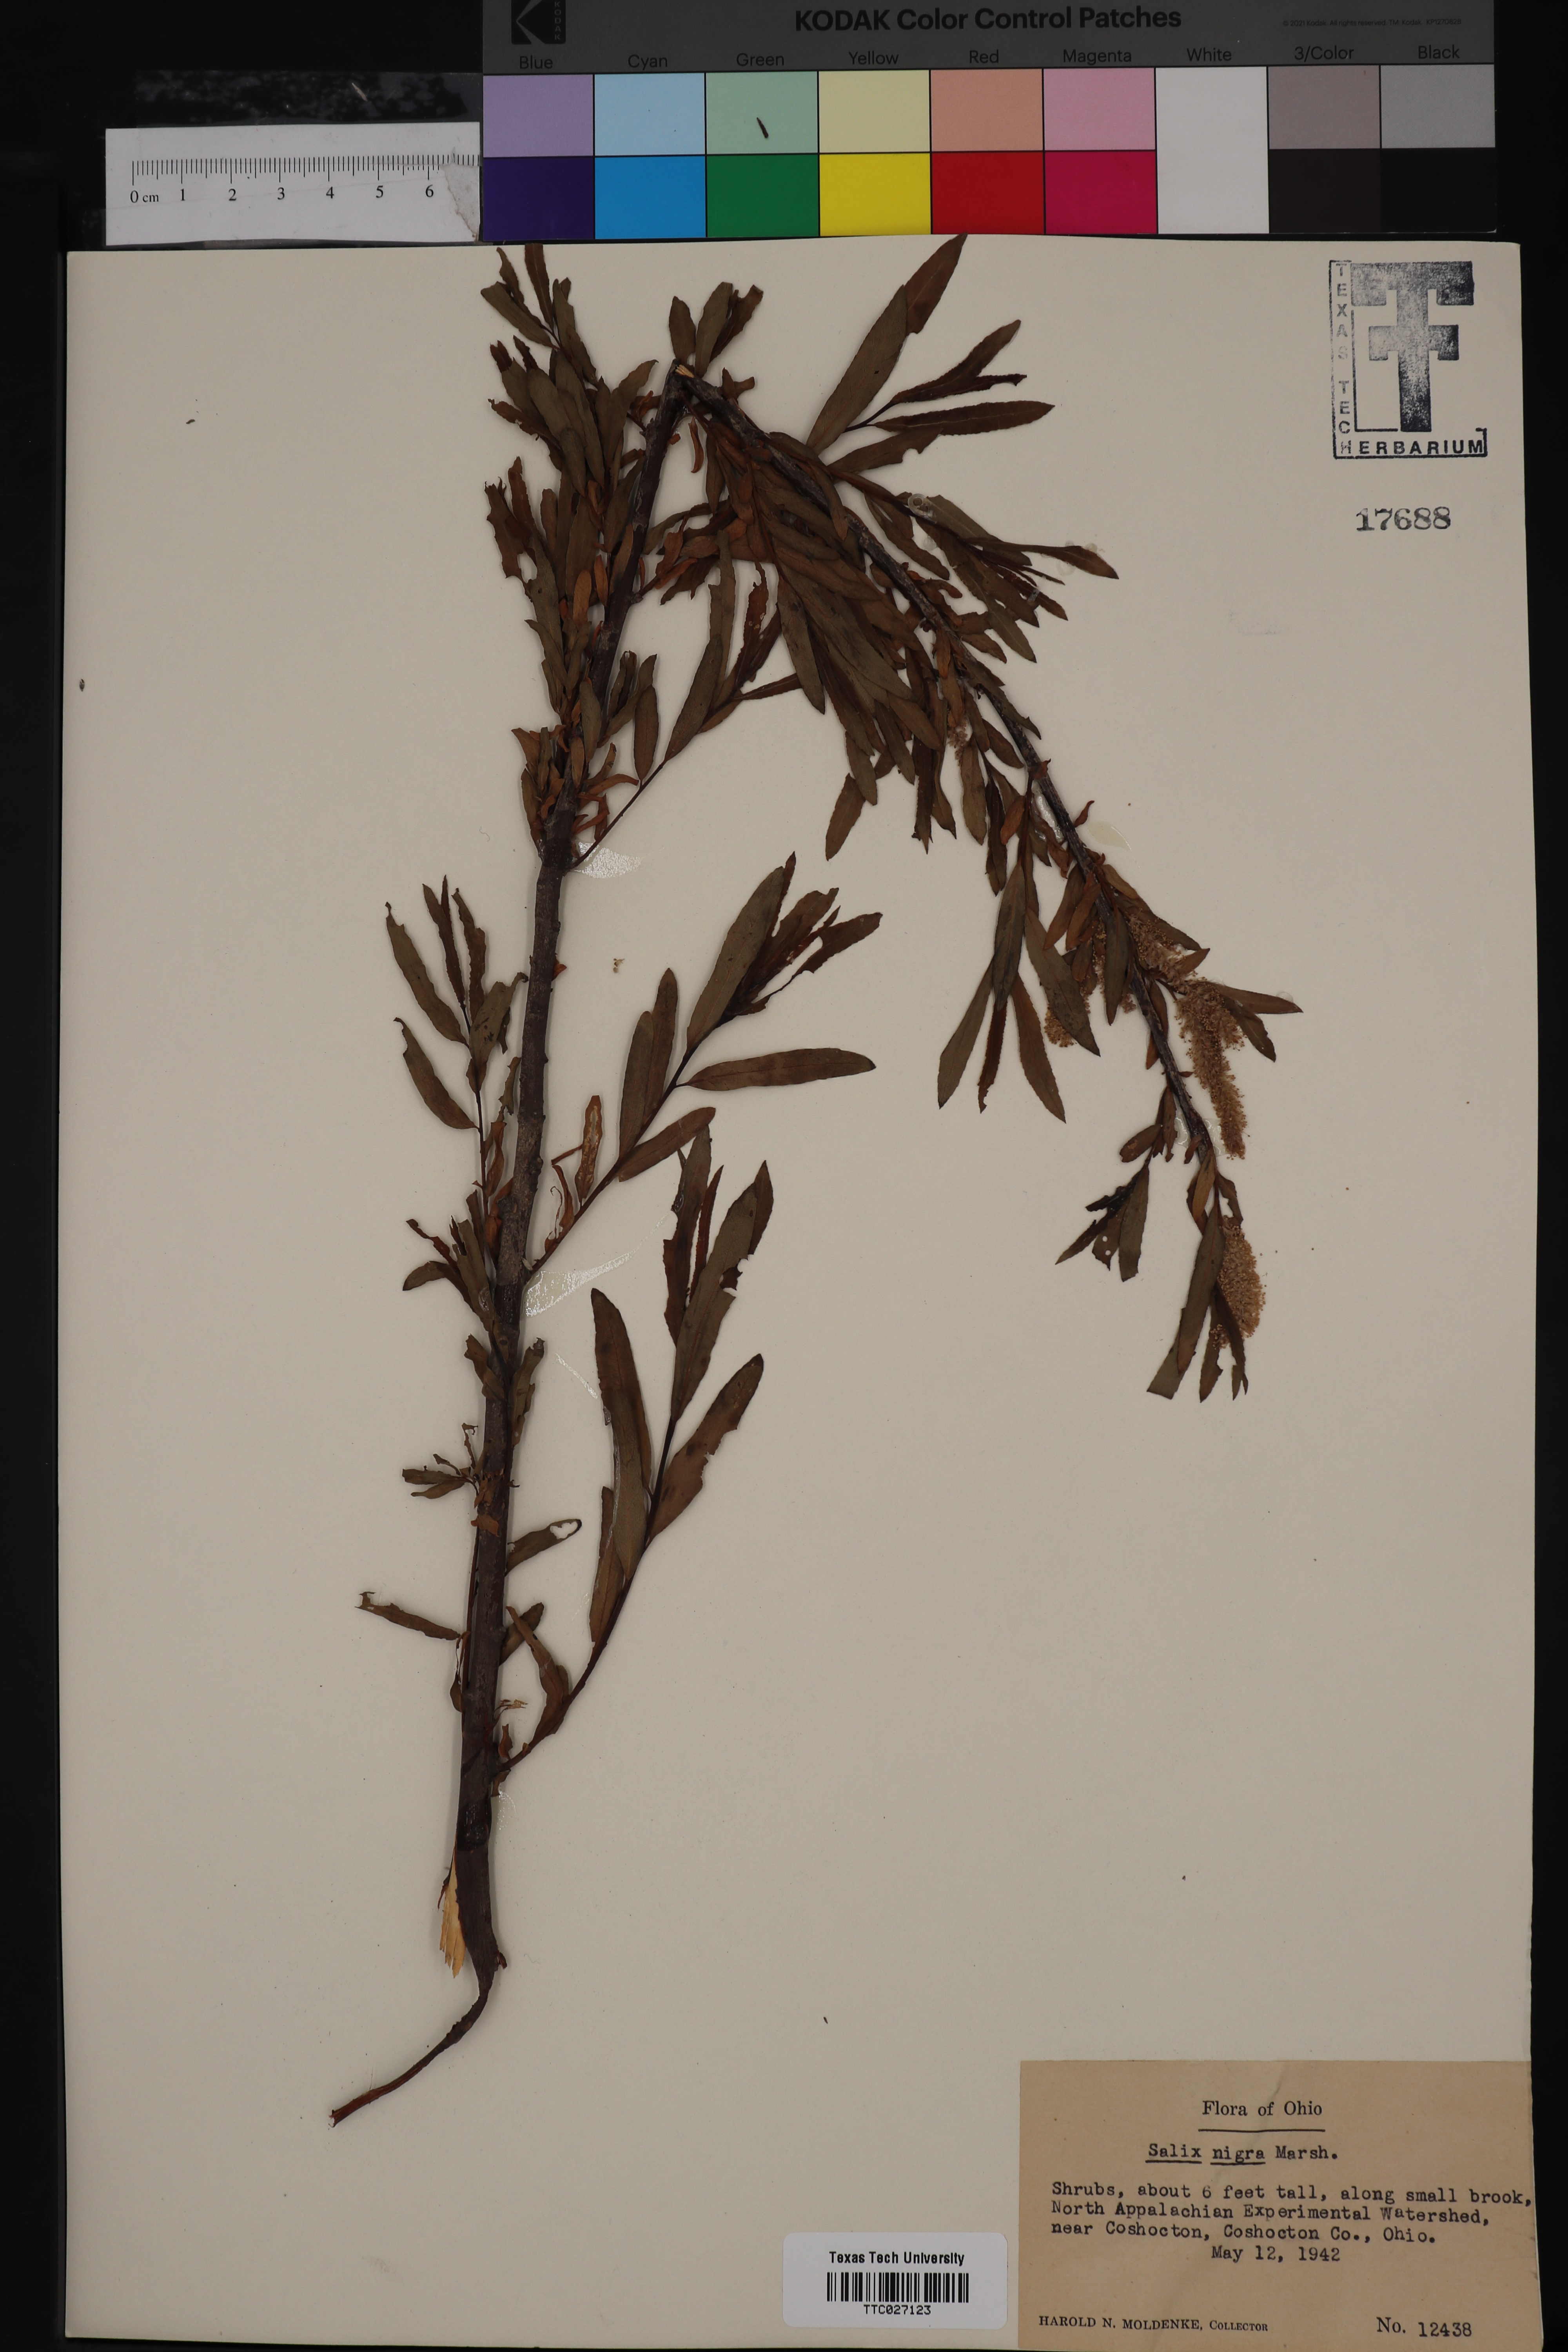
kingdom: Plantae
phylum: Tracheophyta
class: Magnoliopsida
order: Malpighiales
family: Salicaceae
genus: Salix
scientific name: Salix nigra
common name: Black willow
